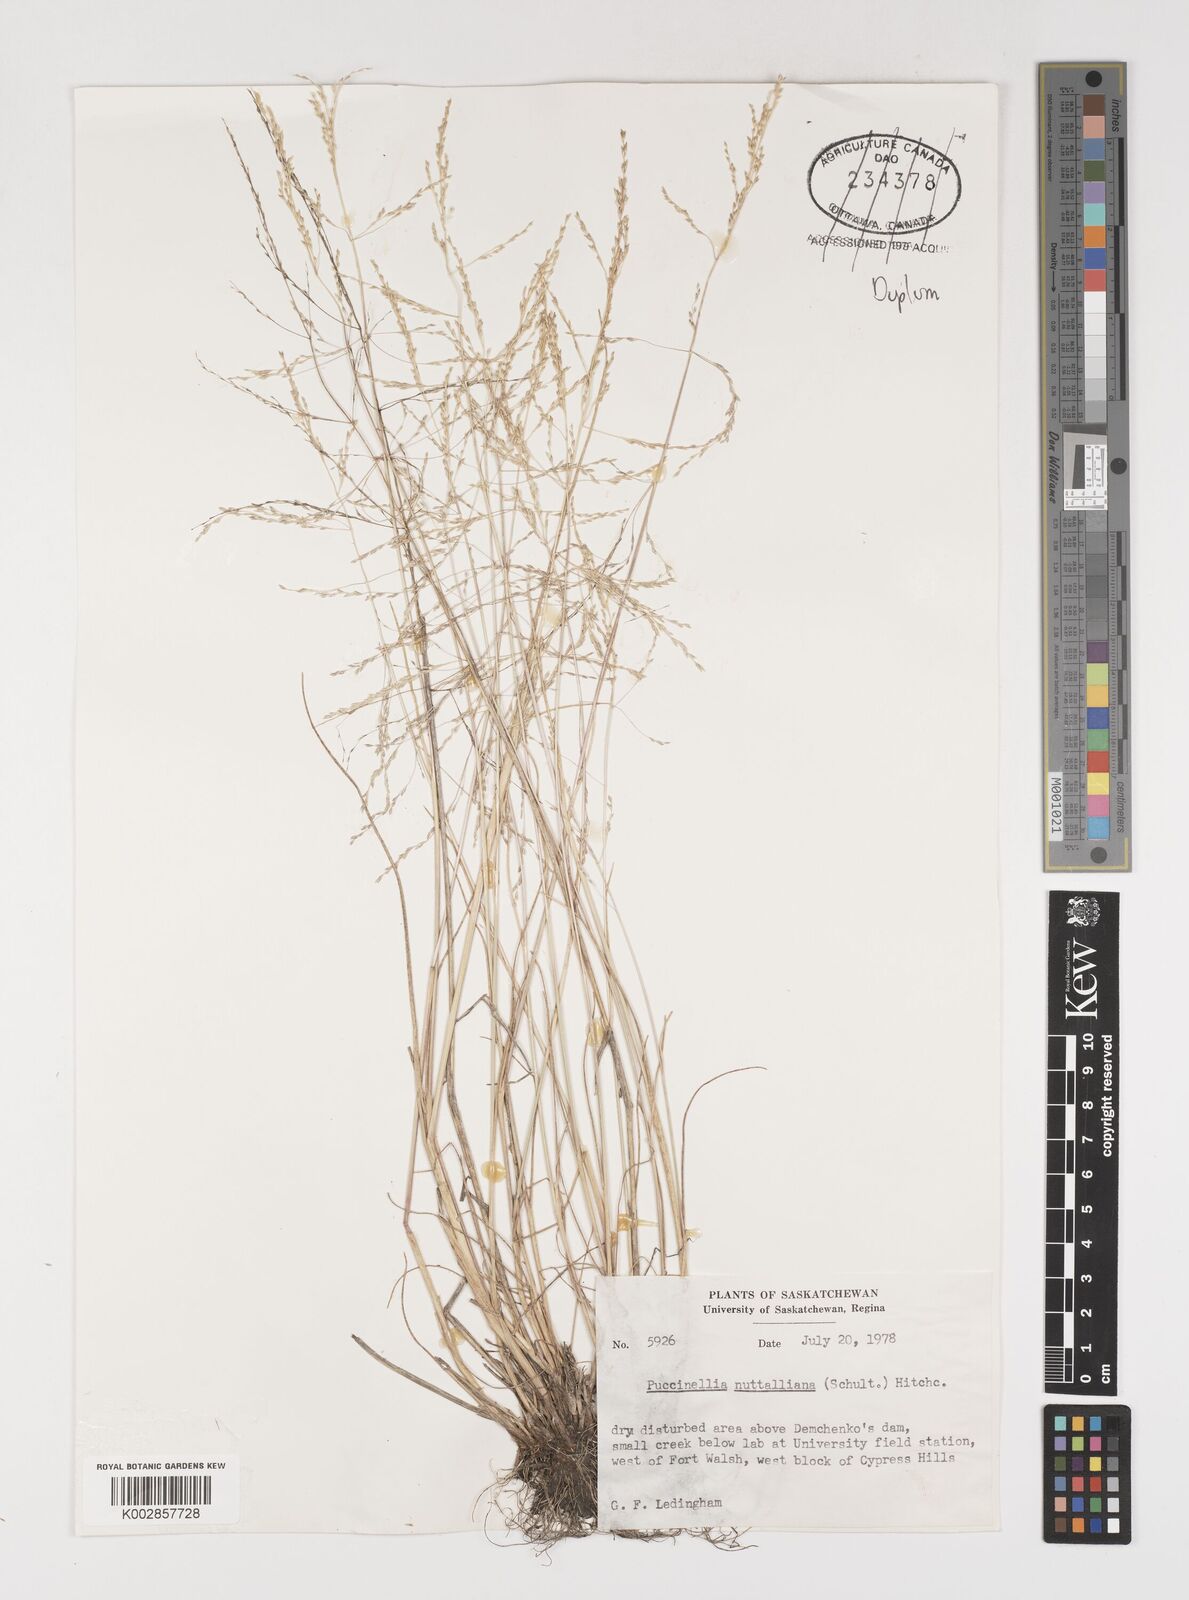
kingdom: Plantae
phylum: Tracheophyta
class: Liliopsida
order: Poales
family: Poaceae
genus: Puccinellia
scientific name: Puccinellia nuttalliana
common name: Nuttall's alkali grass
